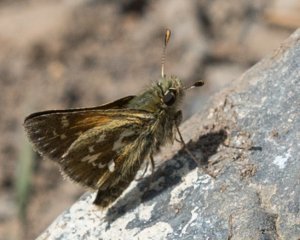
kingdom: Animalia
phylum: Arthropoda
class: Insecta
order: Lepidoptera
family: Hesperiidae
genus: Hesperia
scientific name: Hesperia comma
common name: Common Branded Skipper
